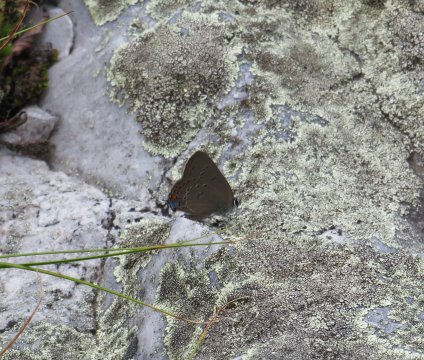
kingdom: Animalia
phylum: Arthropoda
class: Insecta
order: Lepidoptera
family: Lycaenidae
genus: Satyrium
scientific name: Satyrium edwardsii
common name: Edwards' Hairstreak
